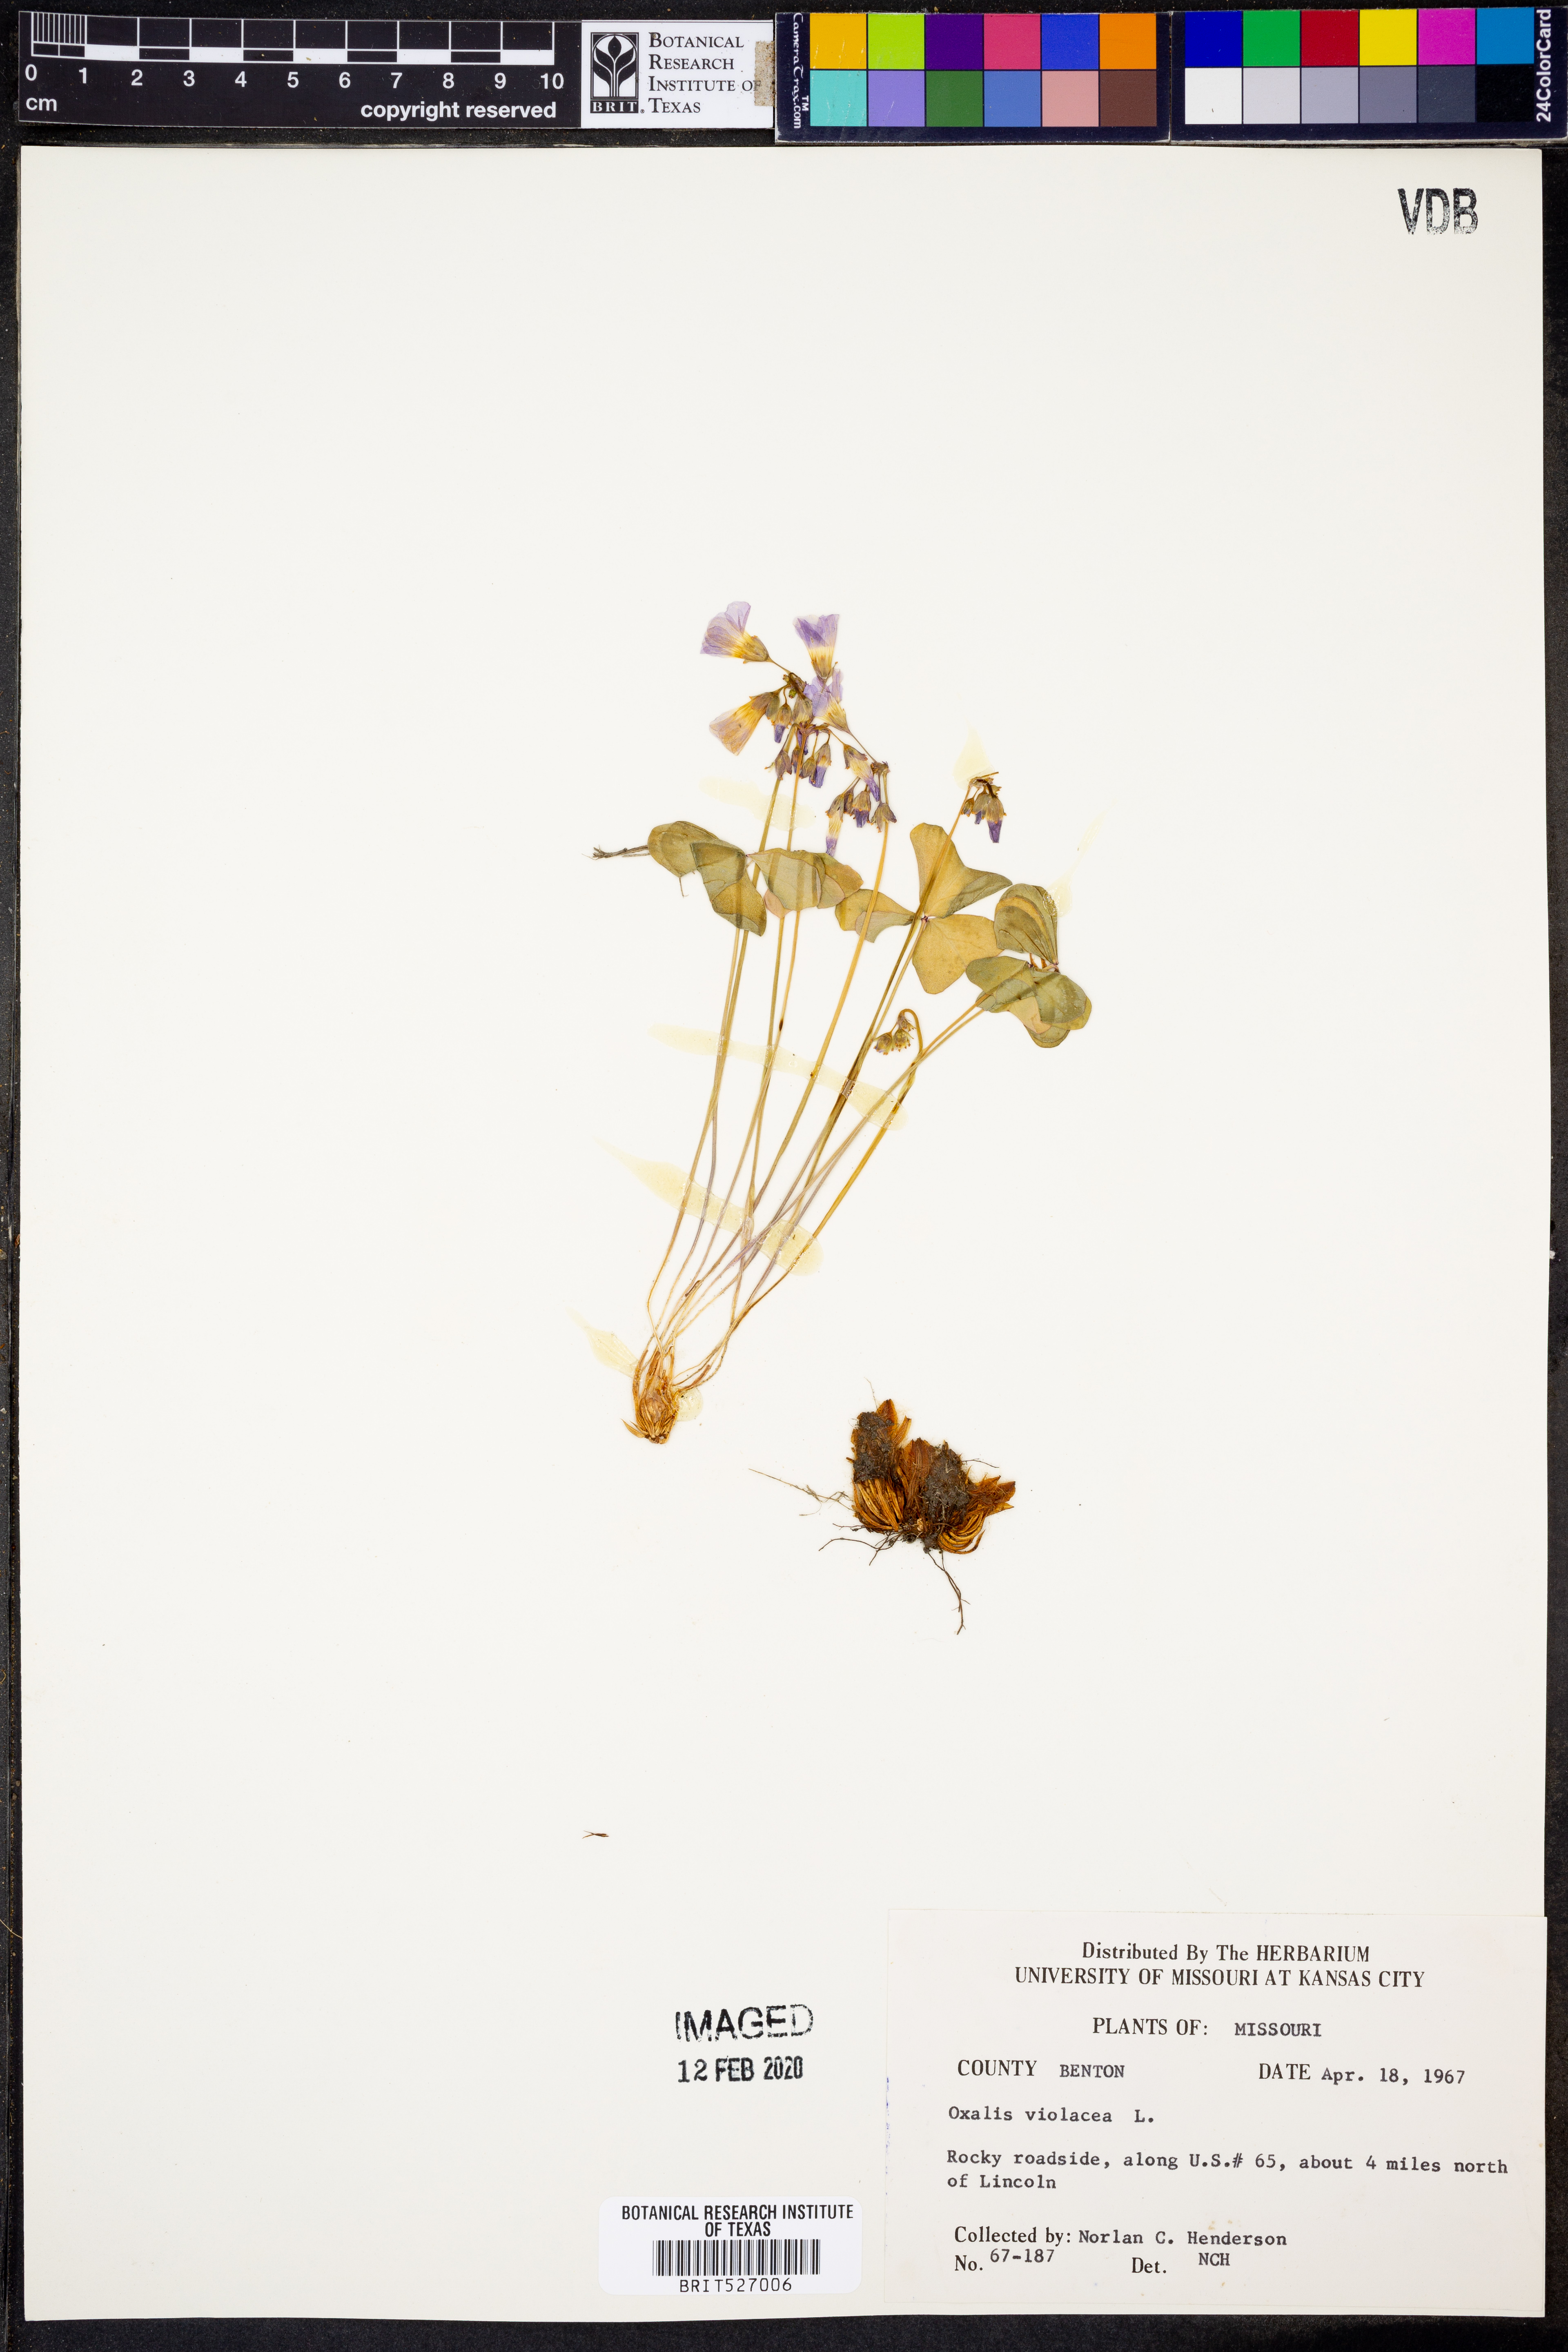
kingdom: Plantae
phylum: Tracheophyta
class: Magnoliopsida
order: Oxalidales
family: Oxalidaceae
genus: Oxalis
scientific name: Oxalis violacea
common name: Violet wood-sorrel
